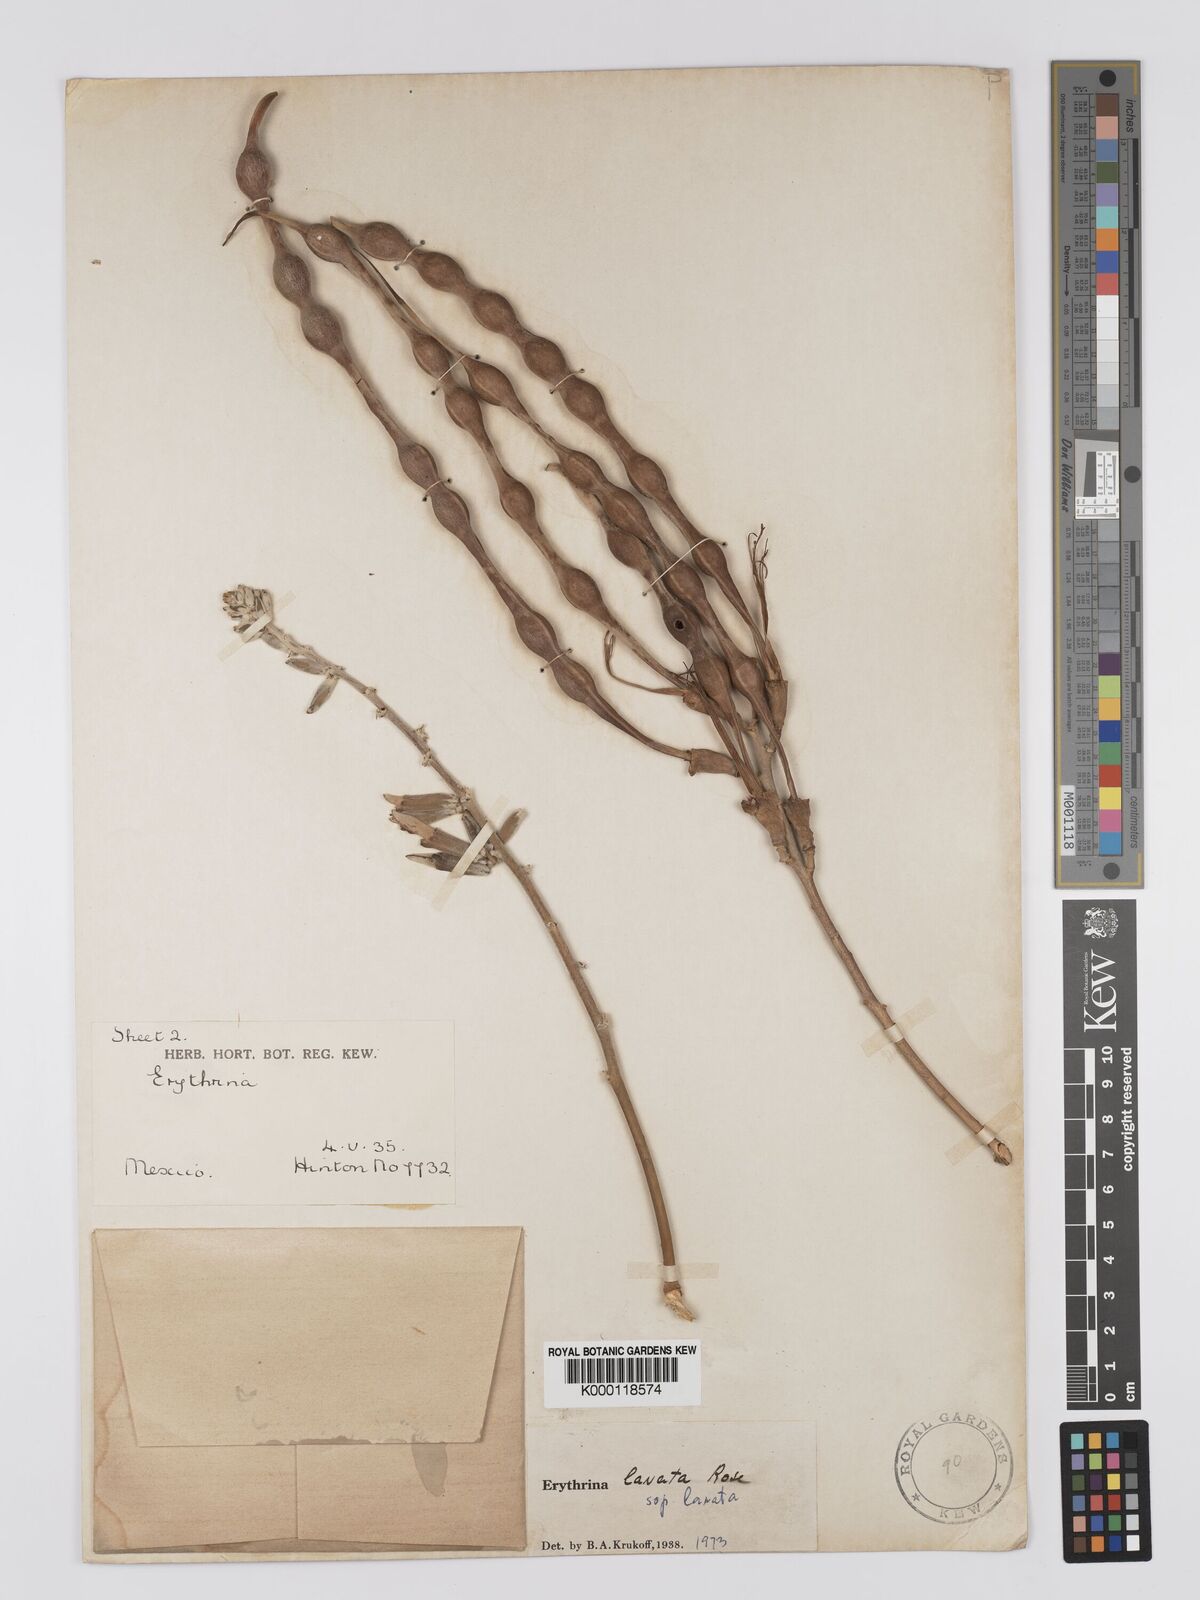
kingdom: Plantae
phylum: Tracheophyta
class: Magnoliopsida
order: Fabales
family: Fabaceae
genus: Erythrina
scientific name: Erythrina lanata
